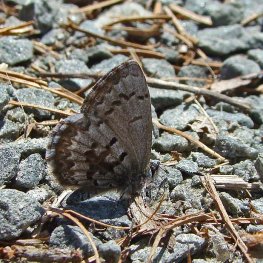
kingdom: Animalia
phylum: Arthropoda
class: Insecta
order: Lepidoptera
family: Lycaenidae
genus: Celastrina
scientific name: Celastrina lucia
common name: Northern Spring Azure
